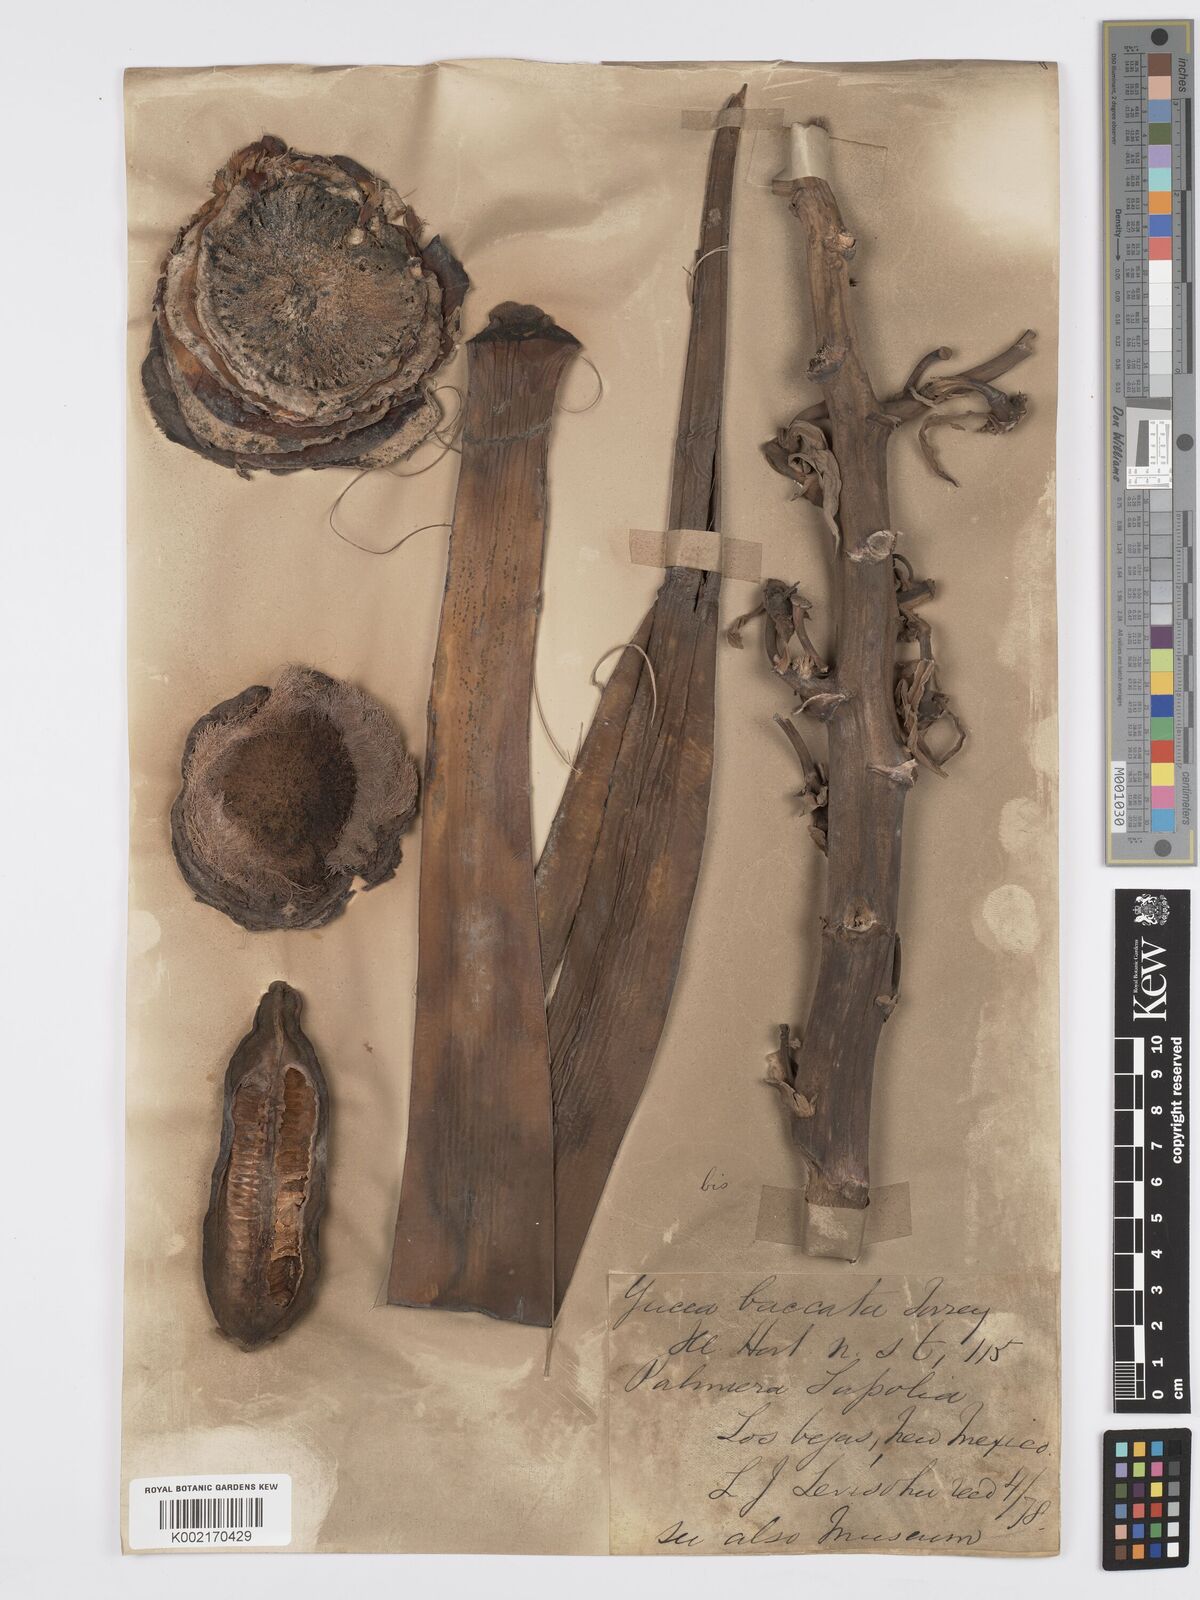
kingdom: Plantae
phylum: Tracheophyta
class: Liliopsida
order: Asparagales
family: Asparagaceae
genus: Yucca
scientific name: Yucca baccata
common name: Banana yucca
